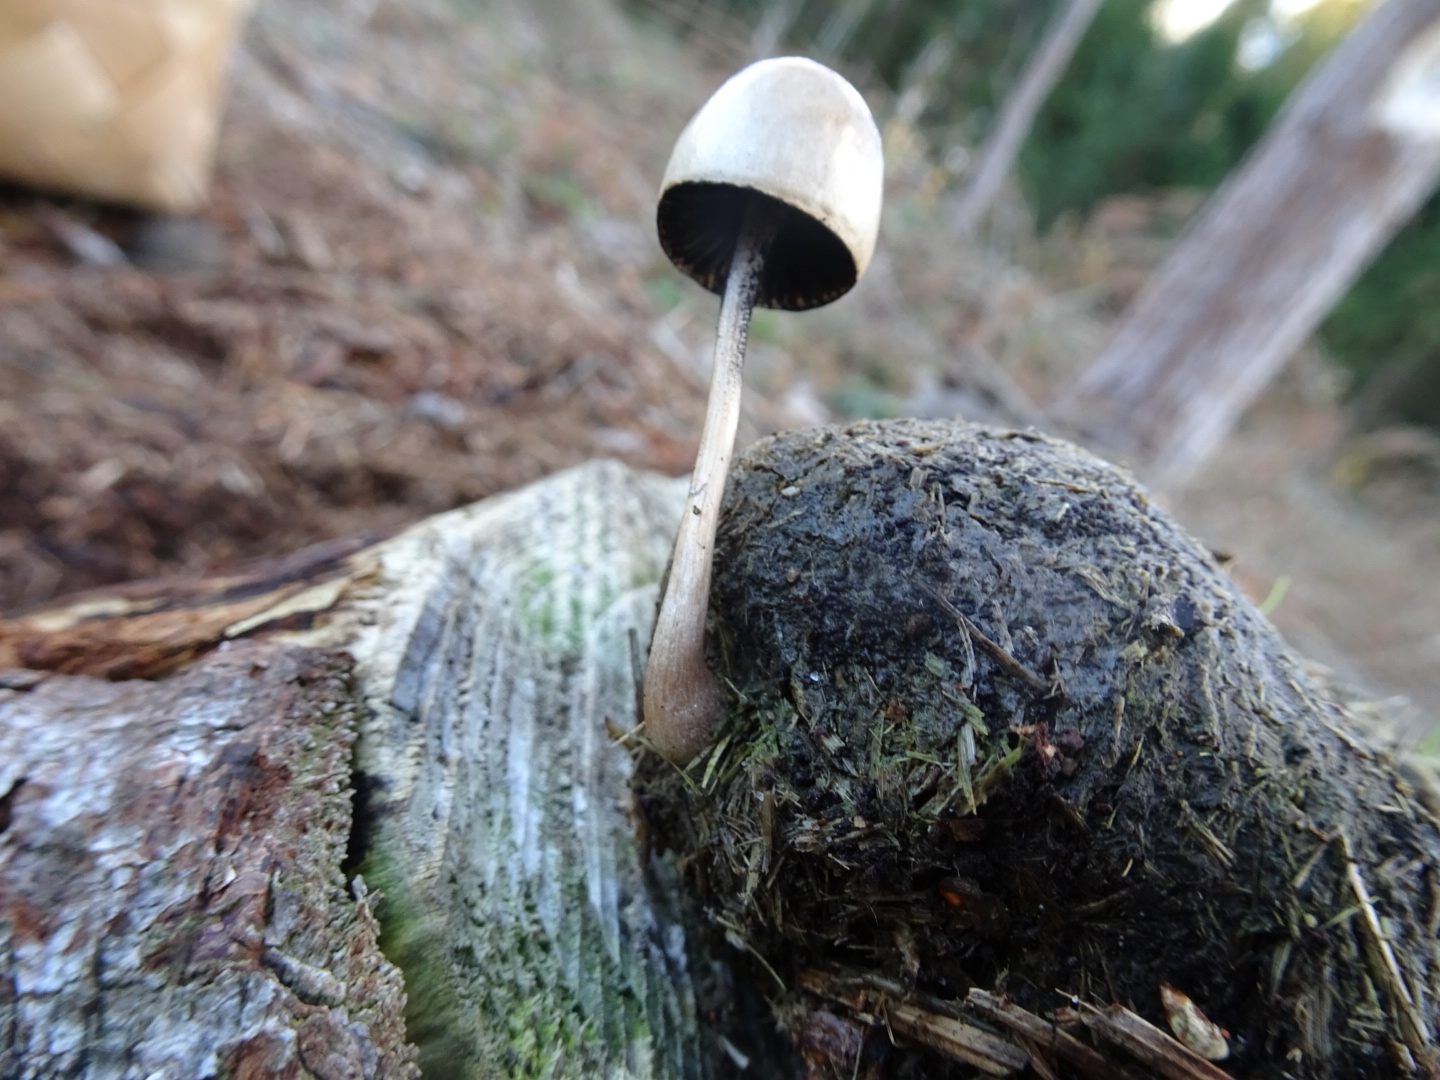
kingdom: Fungi
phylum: Basidiomycota
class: Agaricomycetes
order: Agaricales
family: Bolbitiaceae
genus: Panaeolus
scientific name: Panaeolus semiovatus
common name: ring-glanshat
